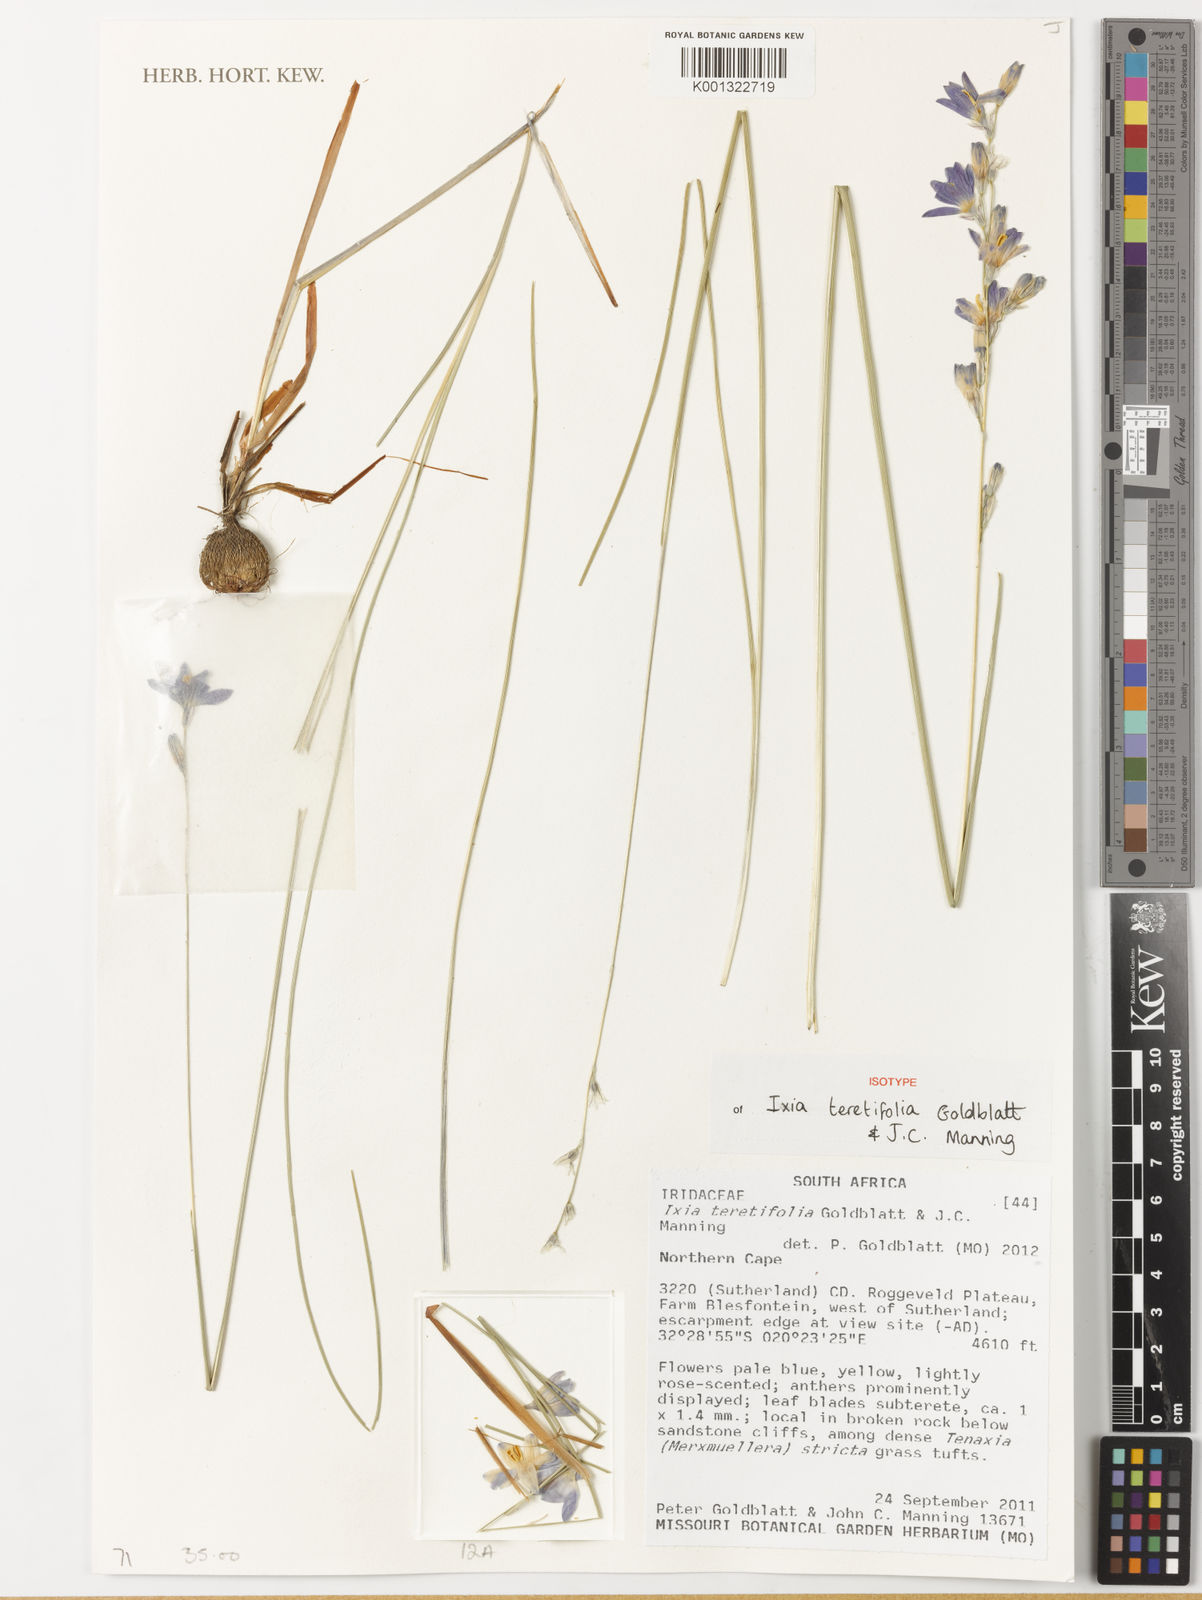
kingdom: Plantae
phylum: Tracheophyta
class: Liliopsida
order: Asparagales
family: Iridaceae
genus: Ixia
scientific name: Ixia teretifolia
